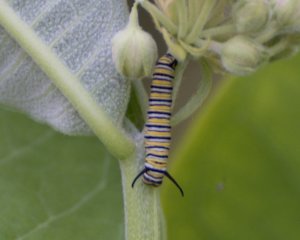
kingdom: Animalia
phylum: Arthropoda
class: Insecta
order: Lepidoptera
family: Nymphalidae
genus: Danaus
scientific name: Danaus plexippus
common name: Monarch
